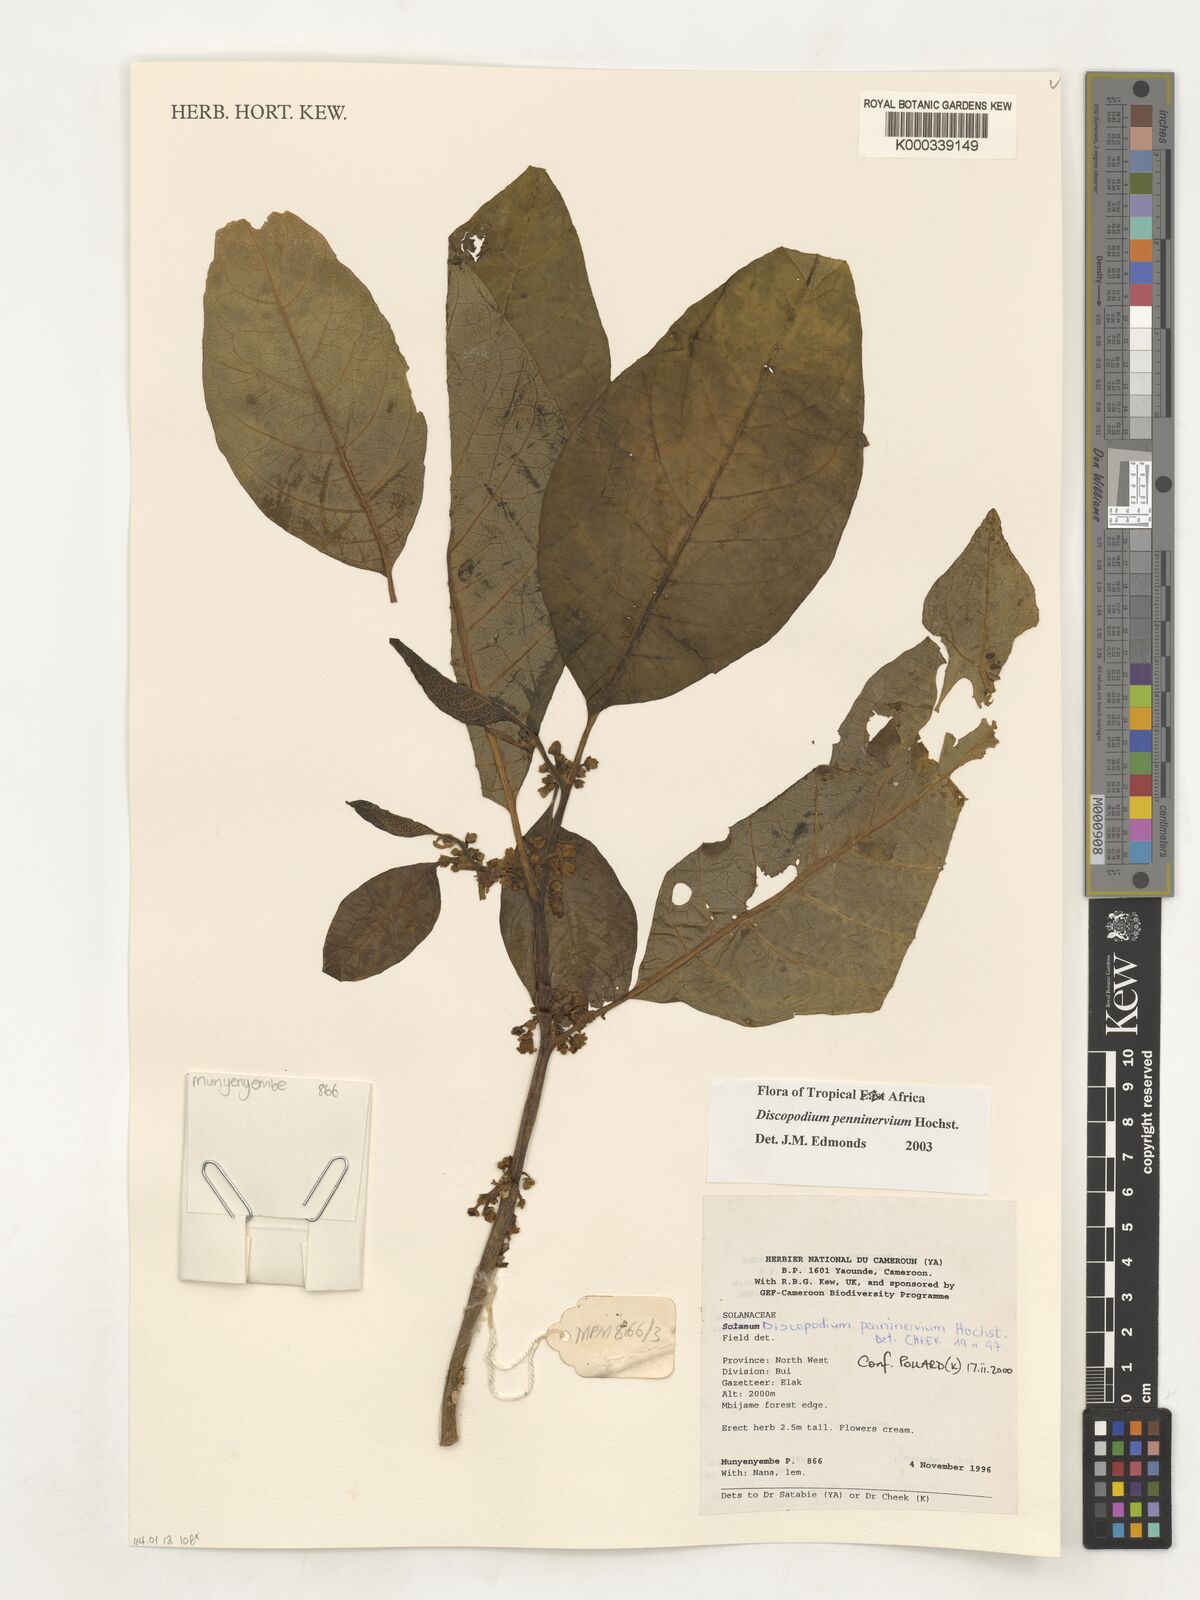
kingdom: Plantae
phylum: Tracheophyta
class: Magnoliopsida
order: Solanales
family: Solanaceae
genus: Discopodium
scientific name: Discopodium penninervium
